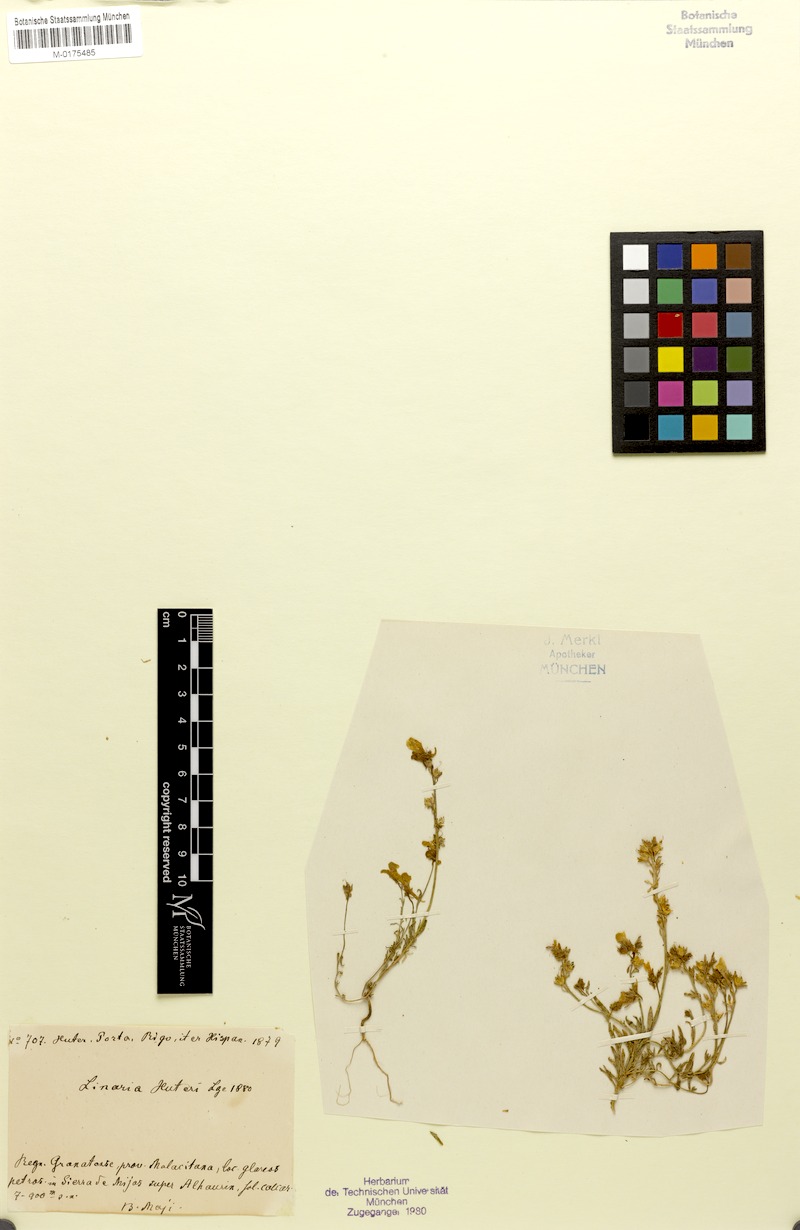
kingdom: Plantae
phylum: Tracheophyta
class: Magnoliopsida
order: Lamiales
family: Plantaginaceae
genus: Linaria
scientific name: Linaria huteri
